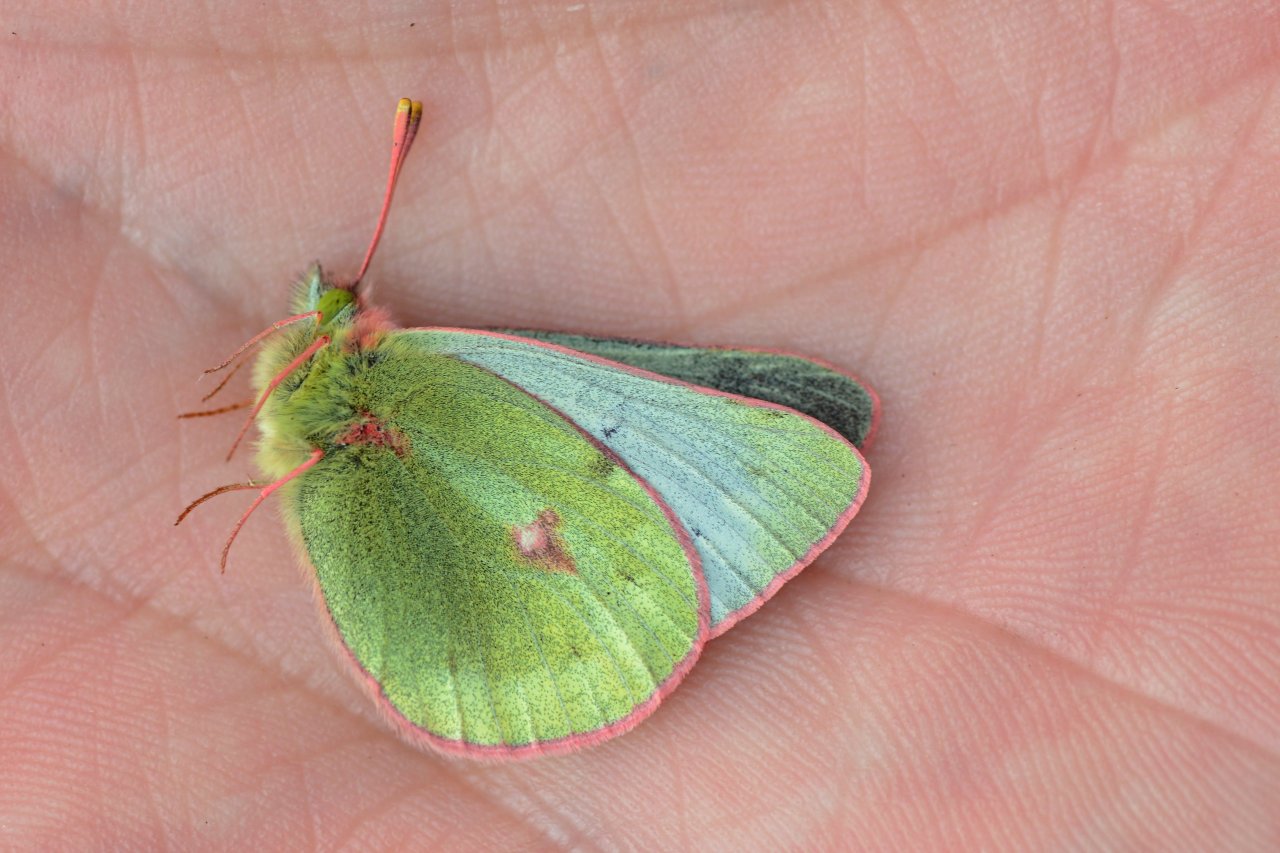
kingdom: Animalia
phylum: Arthropoda
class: Insecta
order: Lepidoptera
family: Pieridae
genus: Colias
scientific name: Colias pelidne
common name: Pelidne Sulphur
